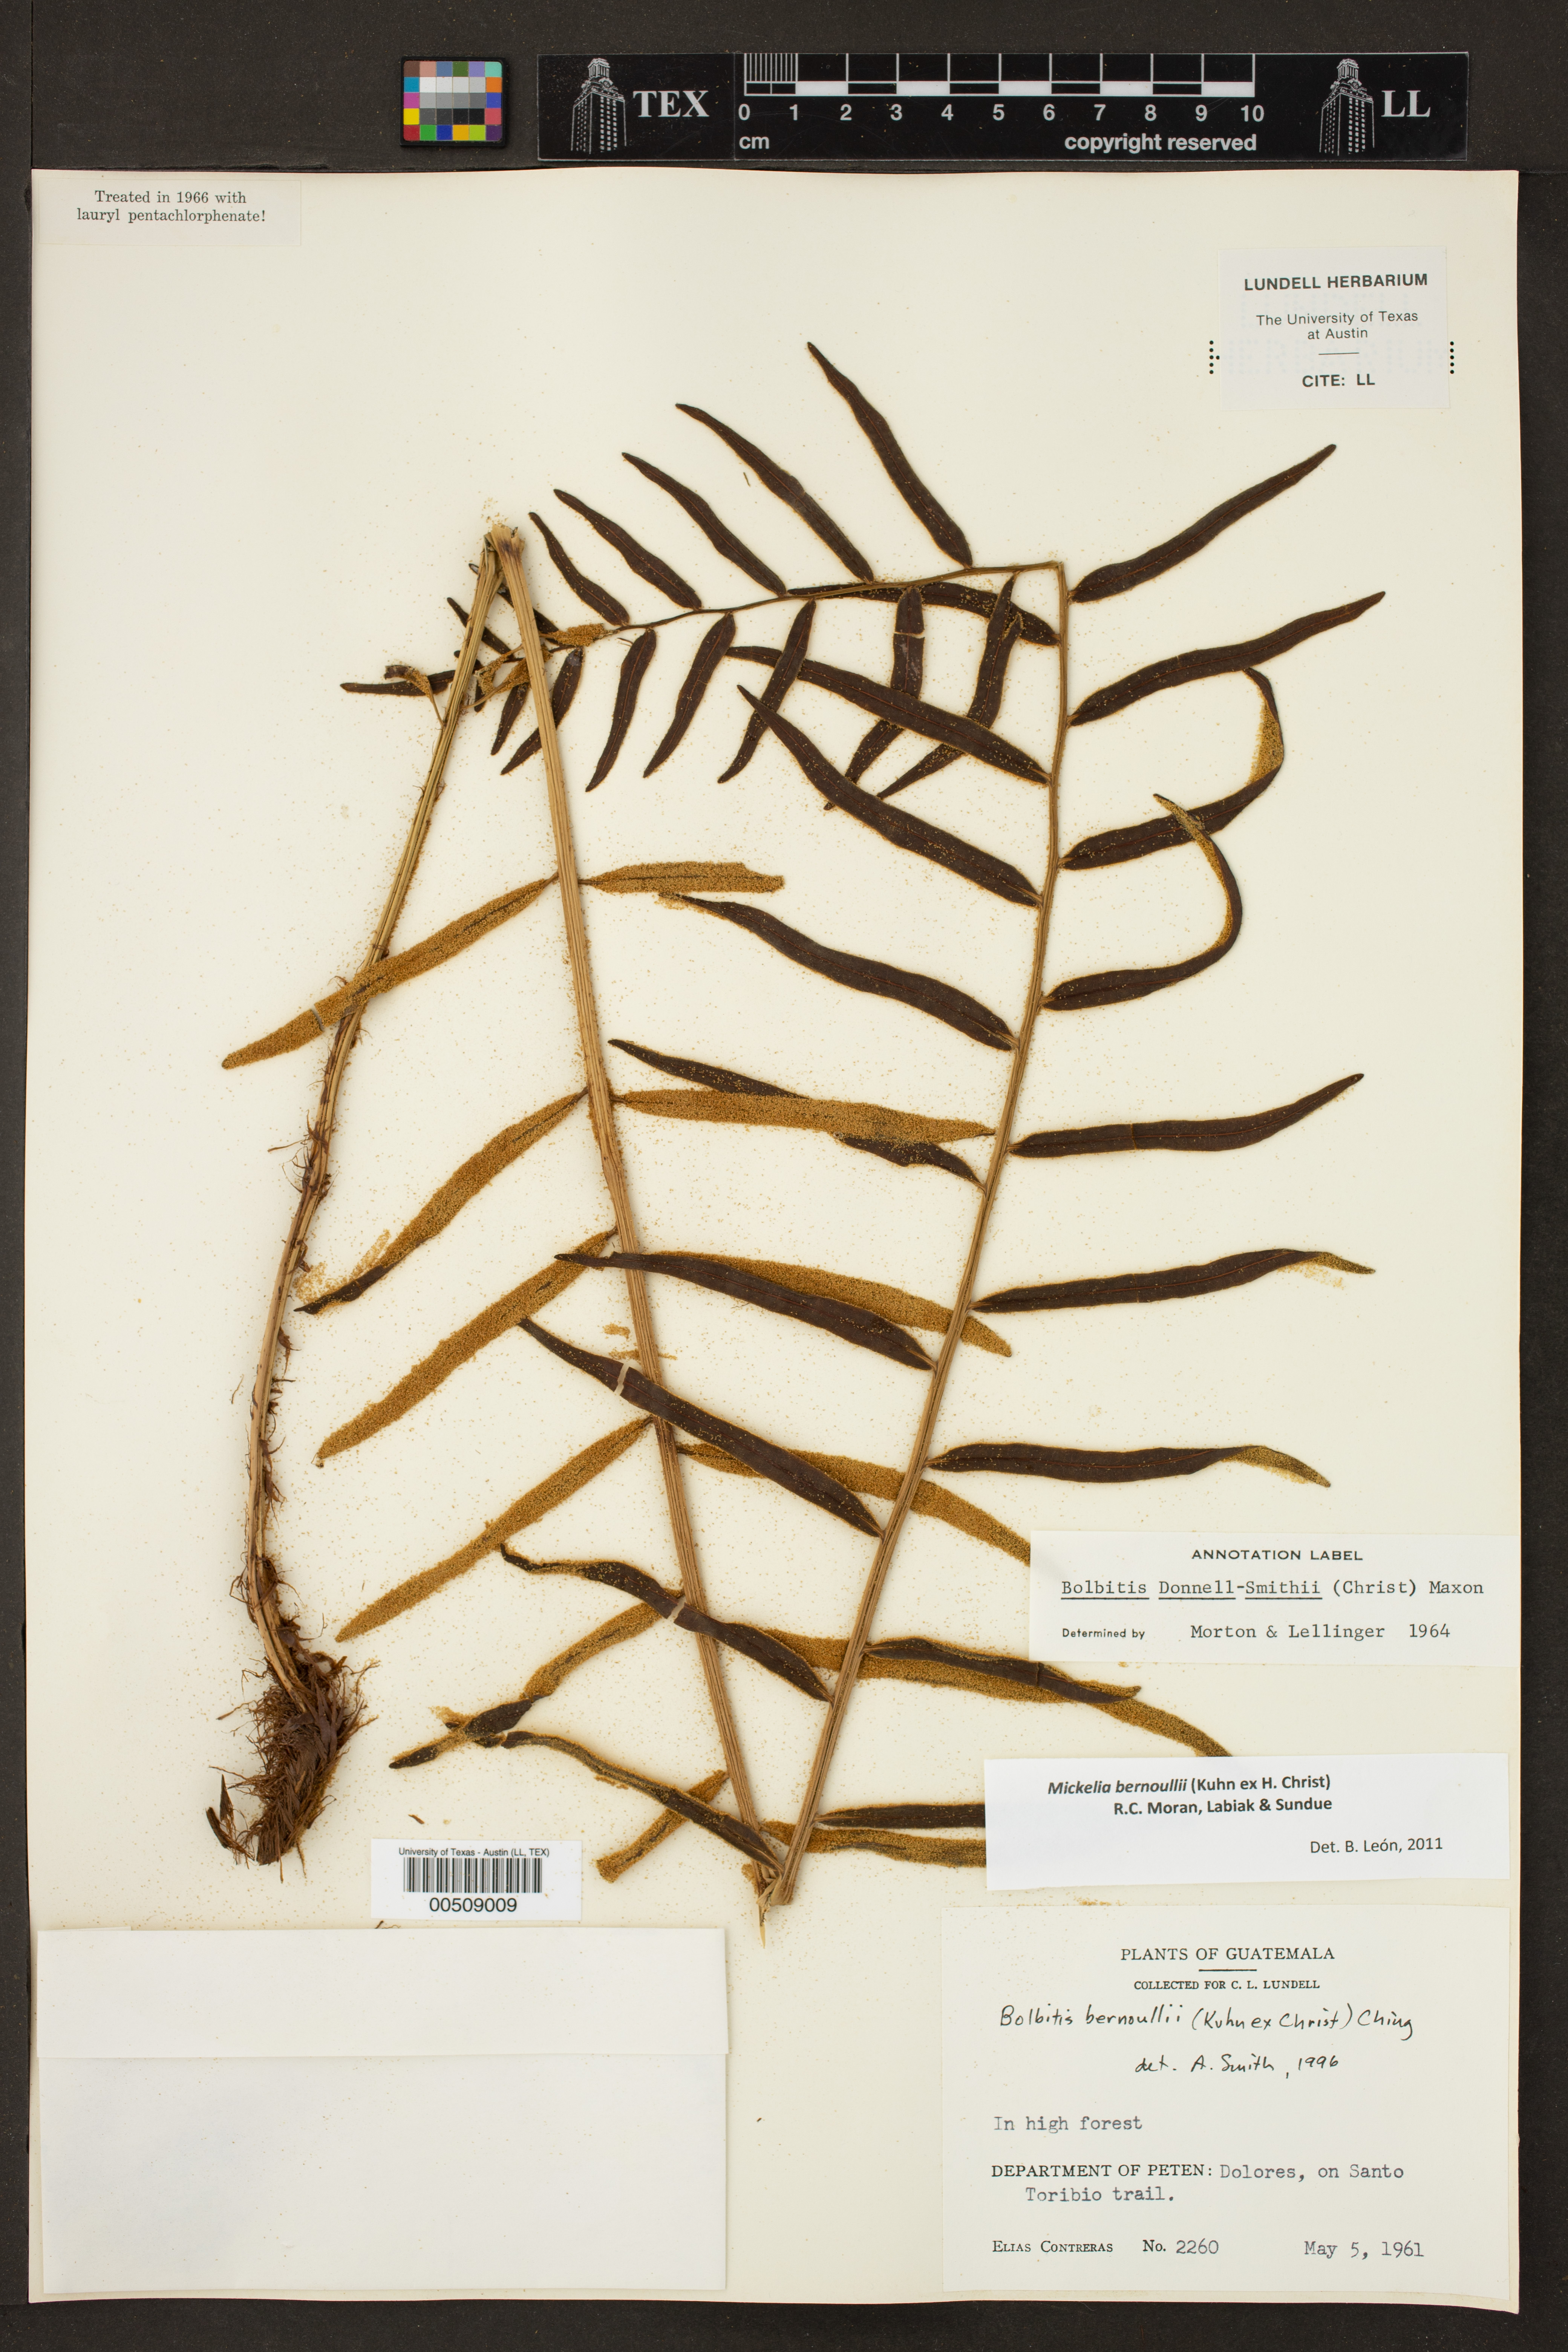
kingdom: Plantae
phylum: Tracheophyta
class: Polypodiopsida
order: Polypodiales
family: Dryopteridaceae
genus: Mickelia
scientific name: Mickelia bernoullii
